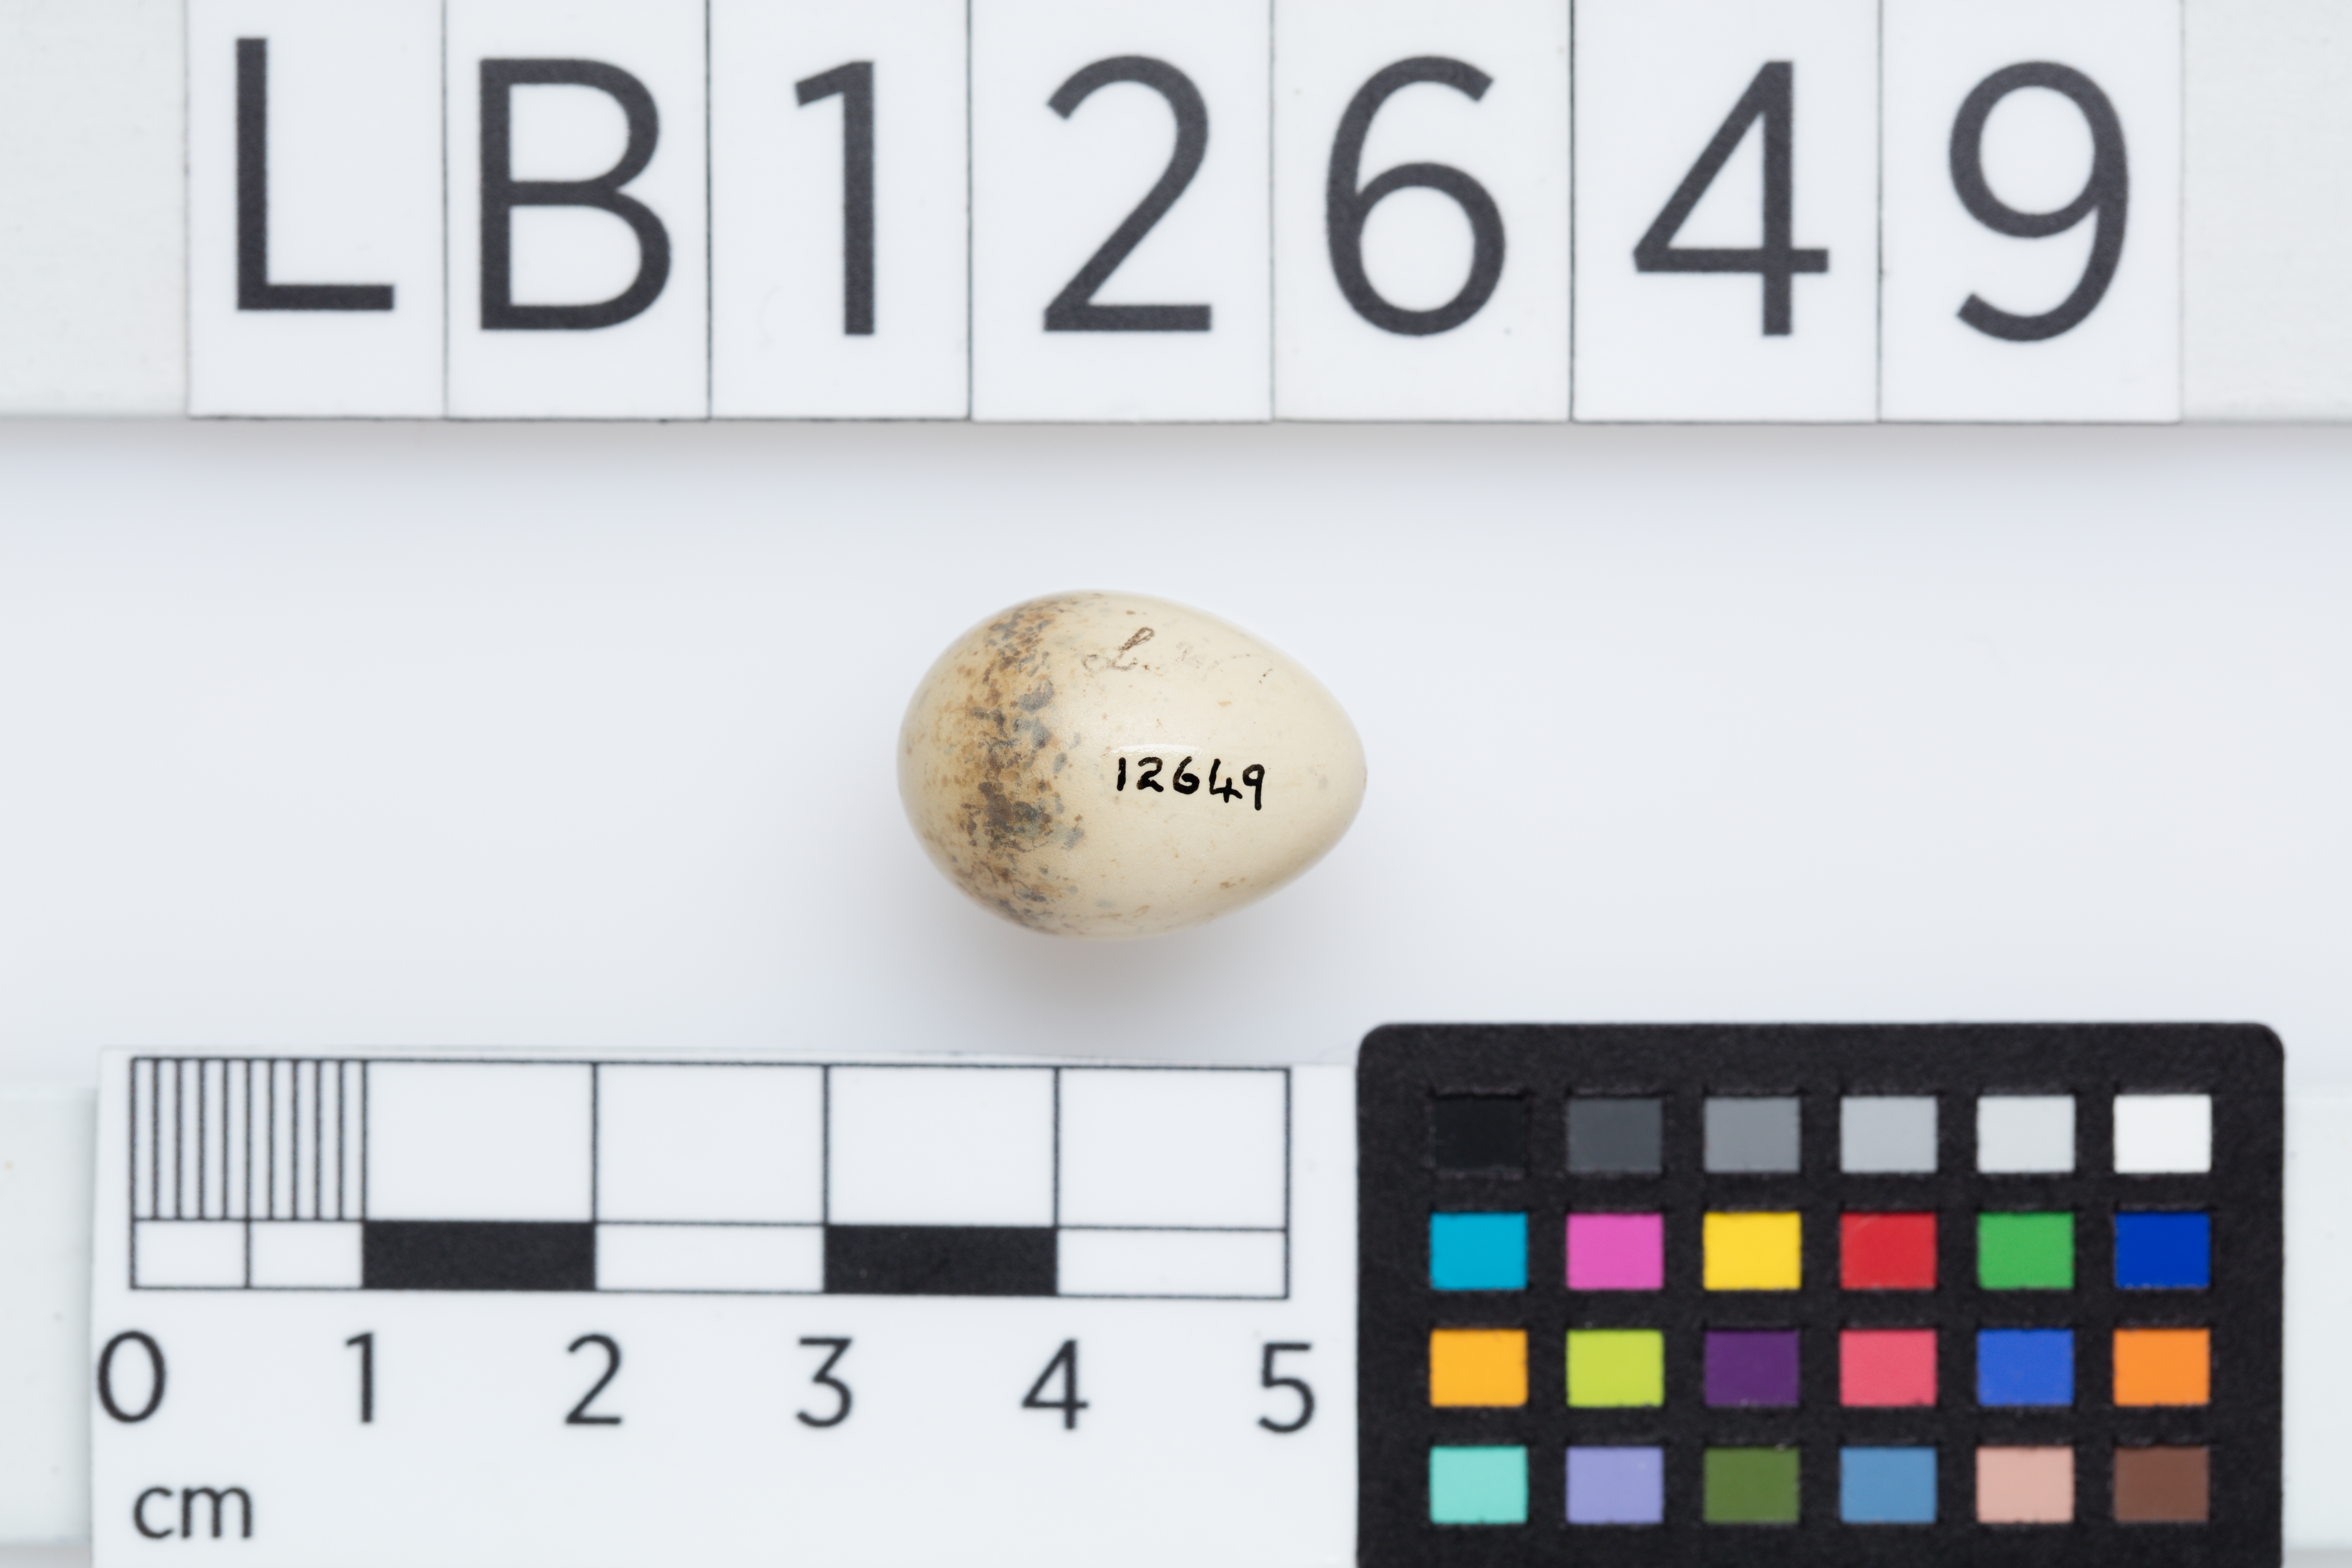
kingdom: Animalia
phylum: Chordata
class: Aves
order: Passeriformes
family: Rhipiduridae
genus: Rhipidura
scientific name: Rhipidura leucophrys
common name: Willie wagtail
